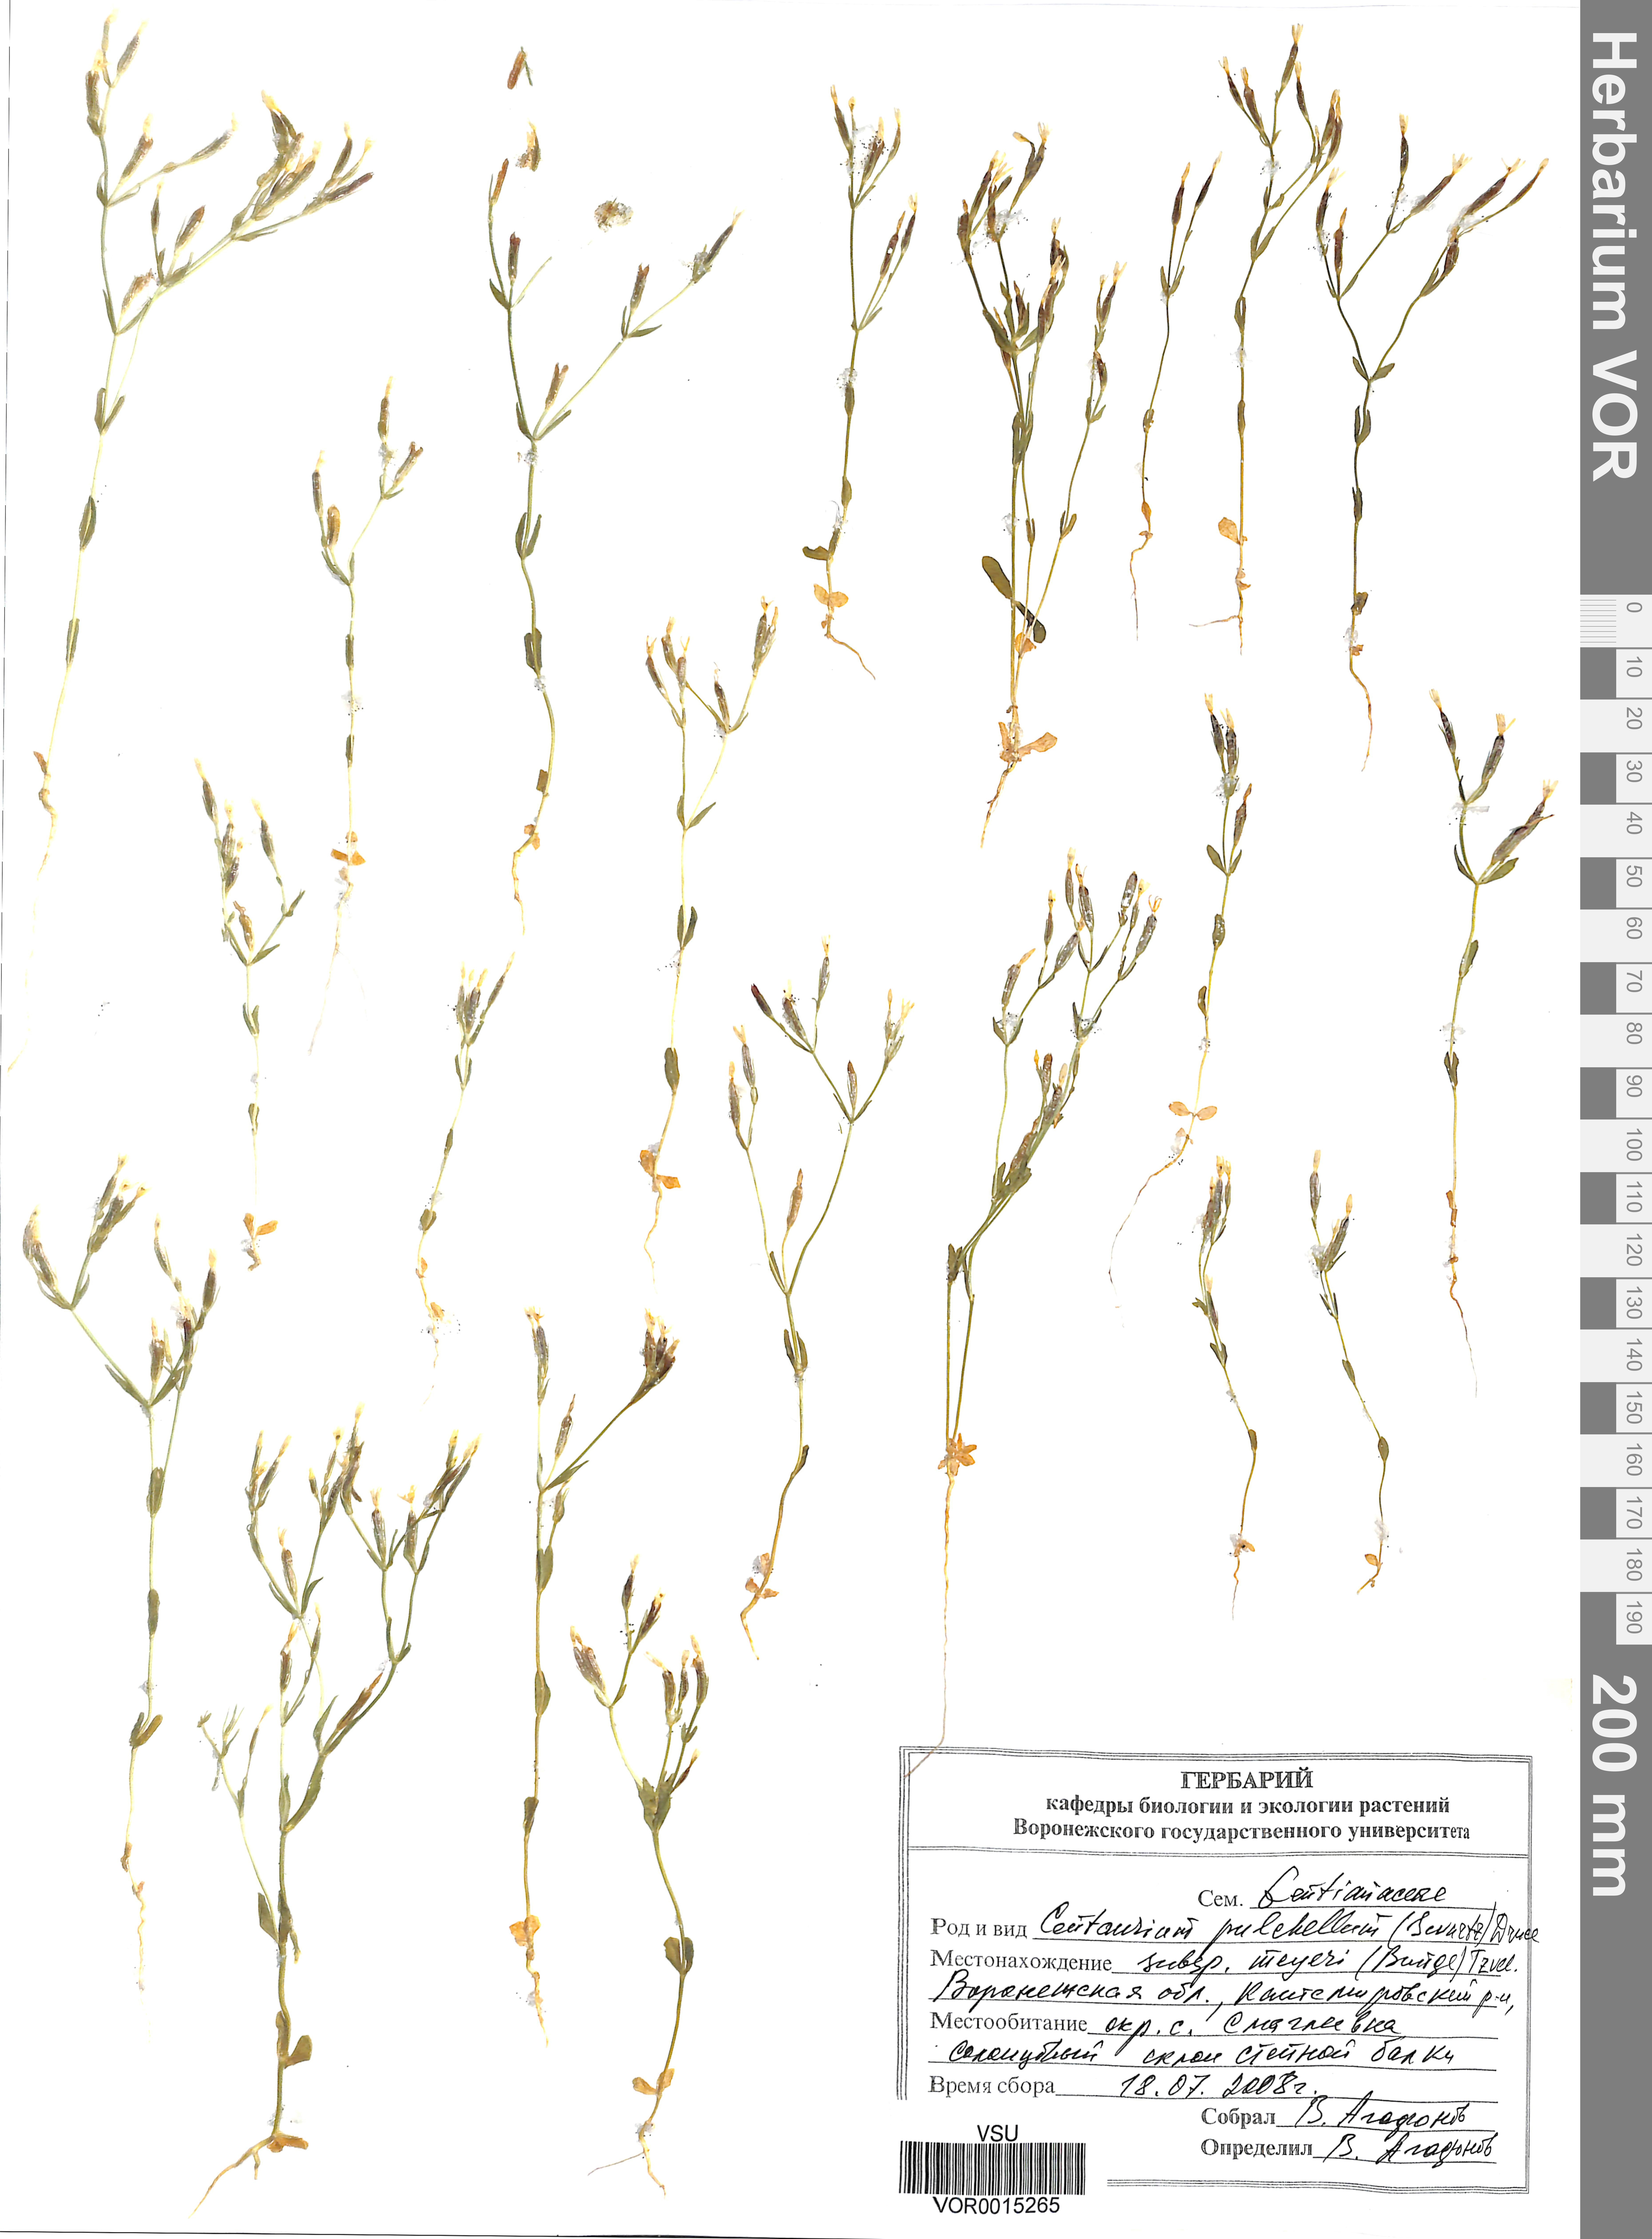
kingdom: Plantae
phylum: Tracheophyta
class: Magnoliopsida
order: Gentianales
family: Gentianaceae
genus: Centaurium
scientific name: Centaurium pulchellum
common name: Lesser centaury
